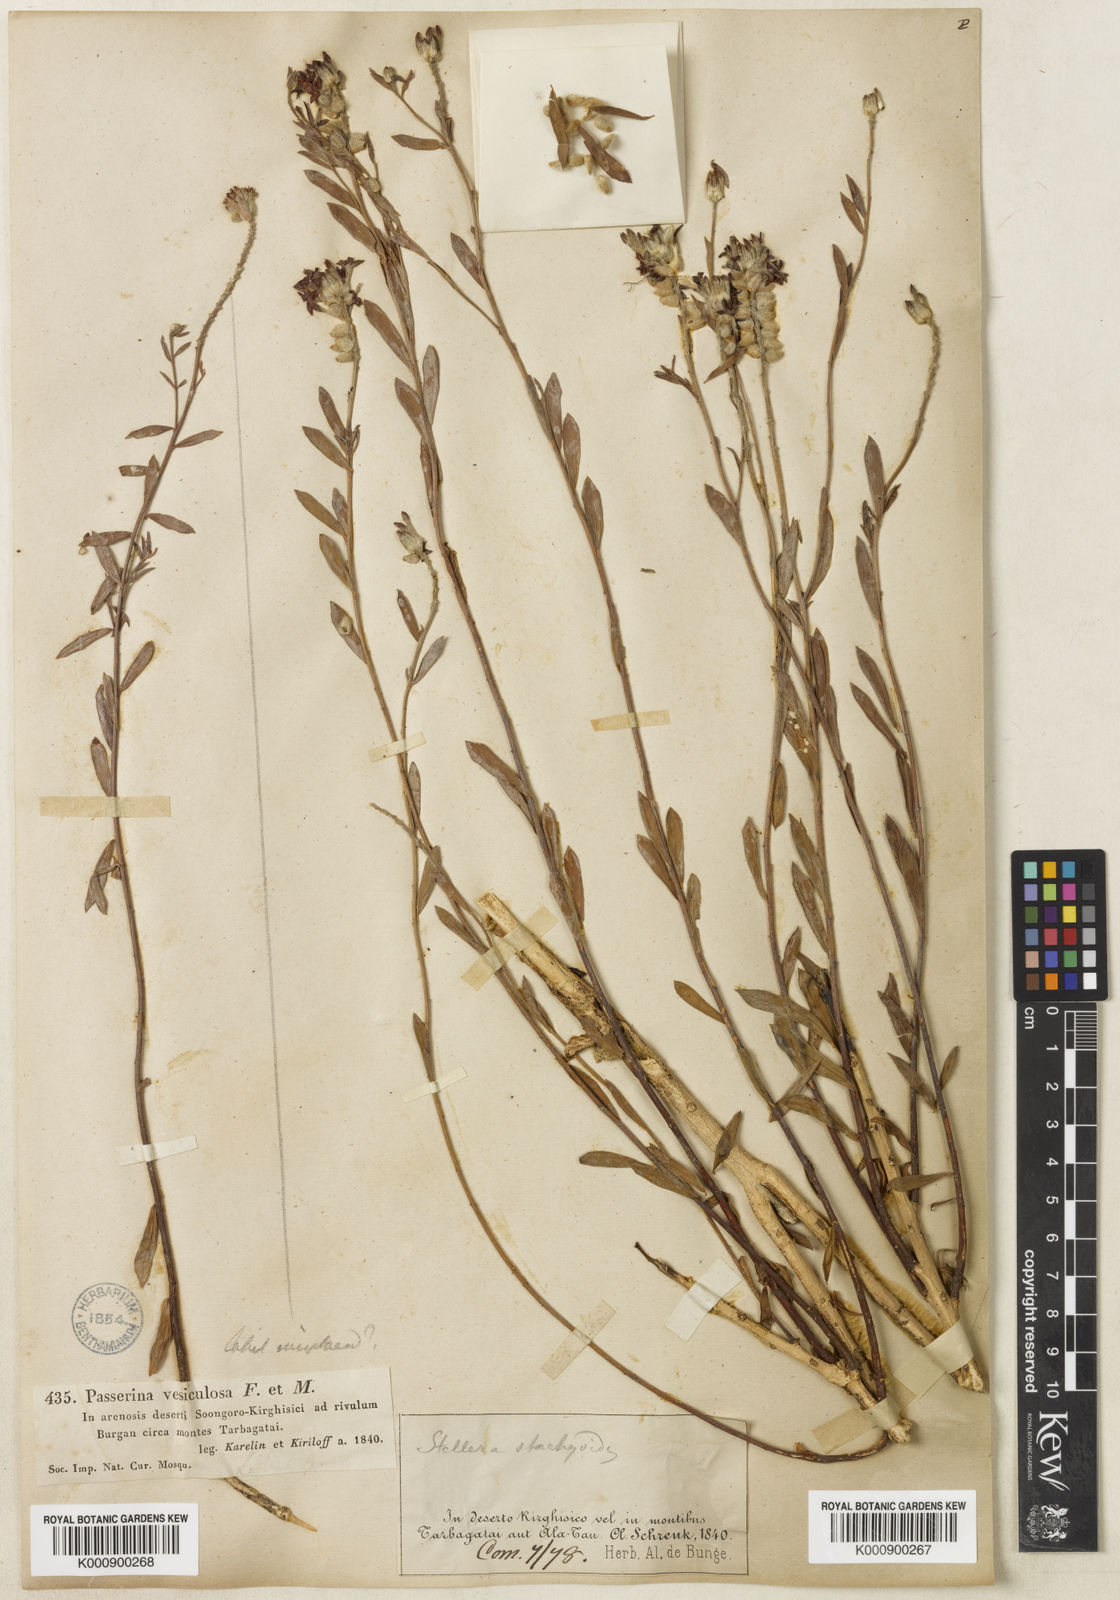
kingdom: Plantae
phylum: Tracheophyta
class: Magnoliopsida
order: Malvales
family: Thymelaeaceae
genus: Diarthron
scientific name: Diarthron ammodendron
